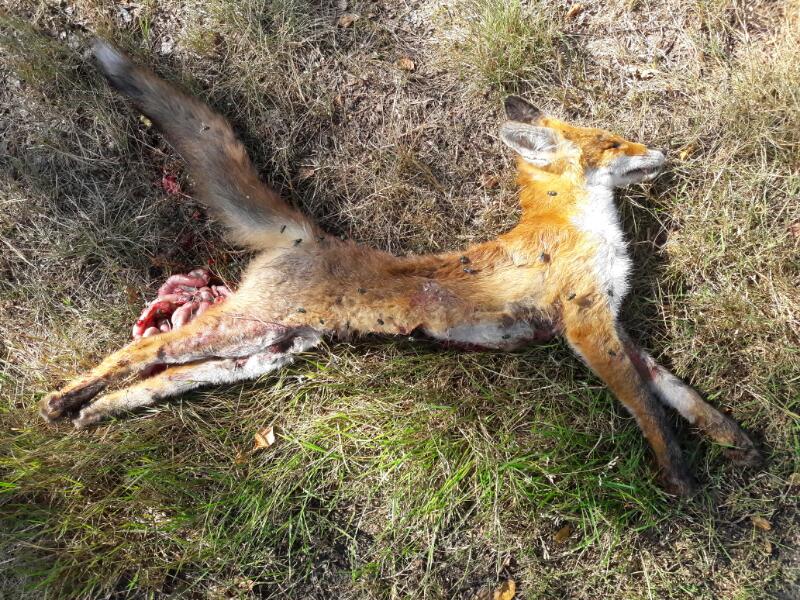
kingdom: Animalia
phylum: Chordata
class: Mammalia
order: Carnivora
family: Canidae
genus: Vulpes
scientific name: Vulpes vulpes
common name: Red fox
